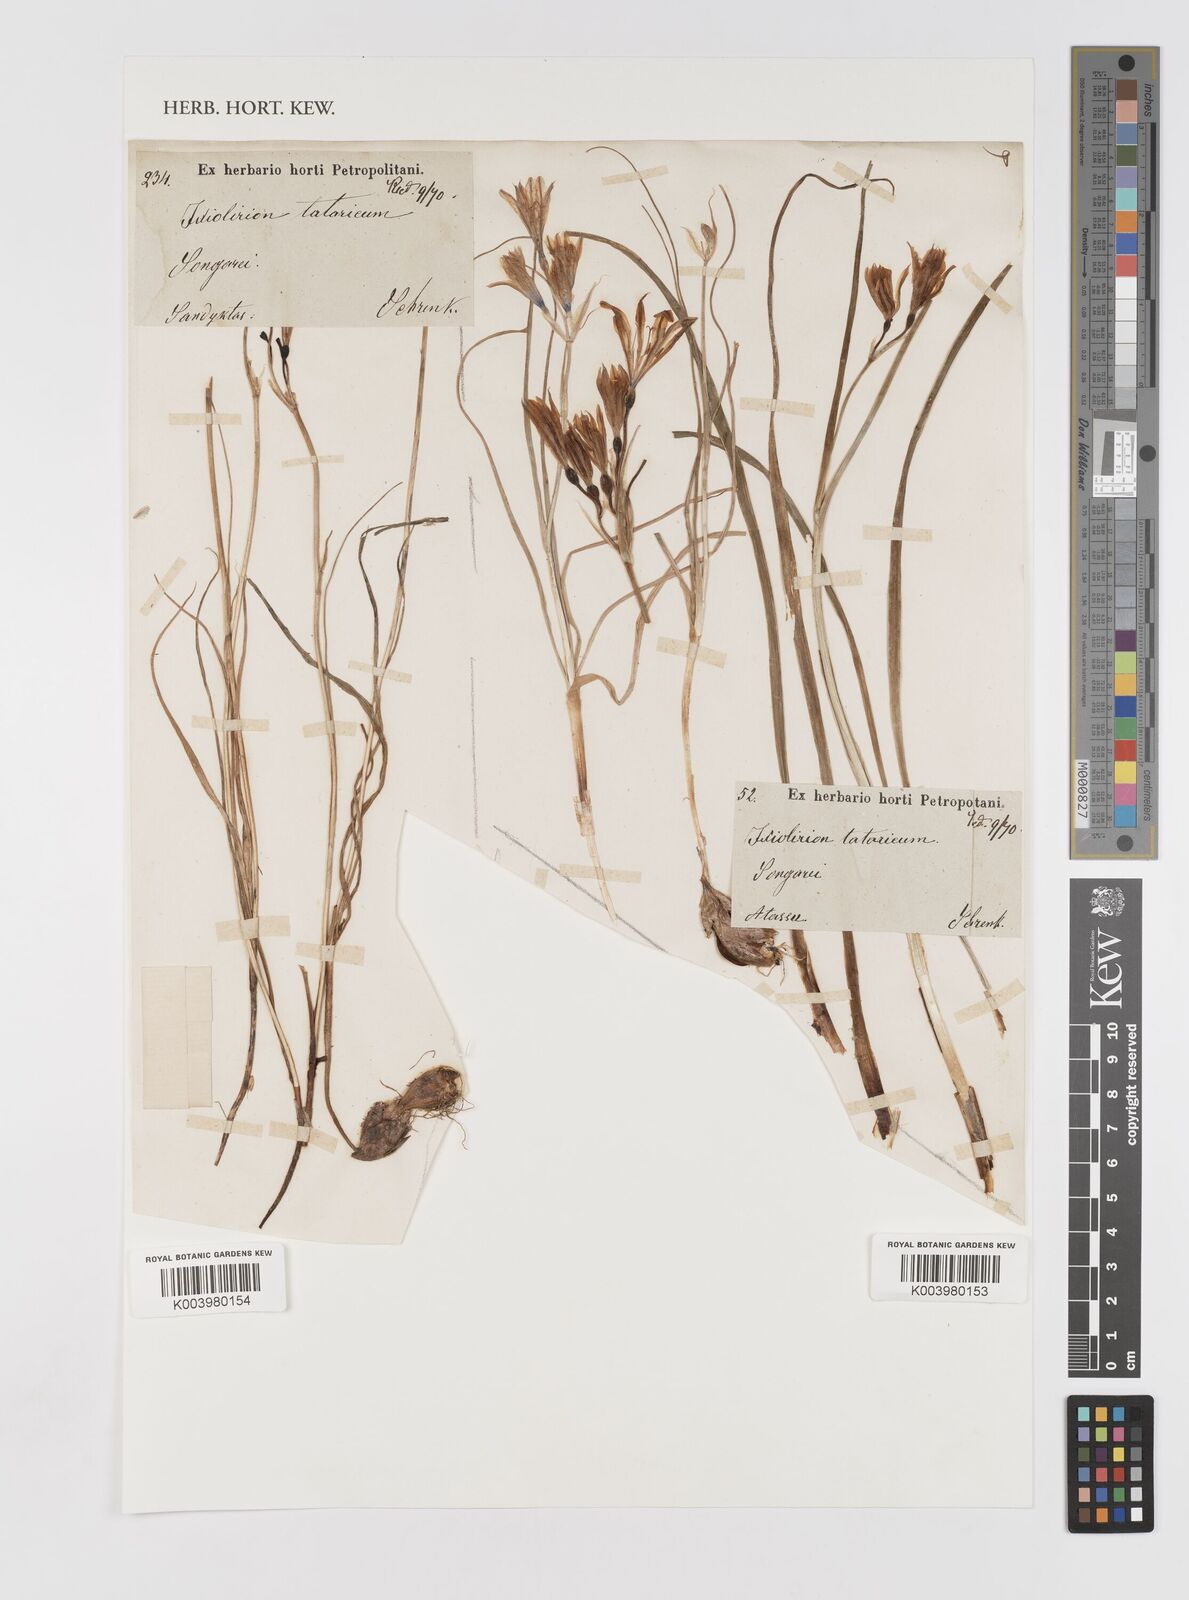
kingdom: Plantae
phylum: Tracheophyta
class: Liliopsida
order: Asparagales
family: Ixioliriaceae
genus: Ixiolirion
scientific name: Ixiolirion tataricum
